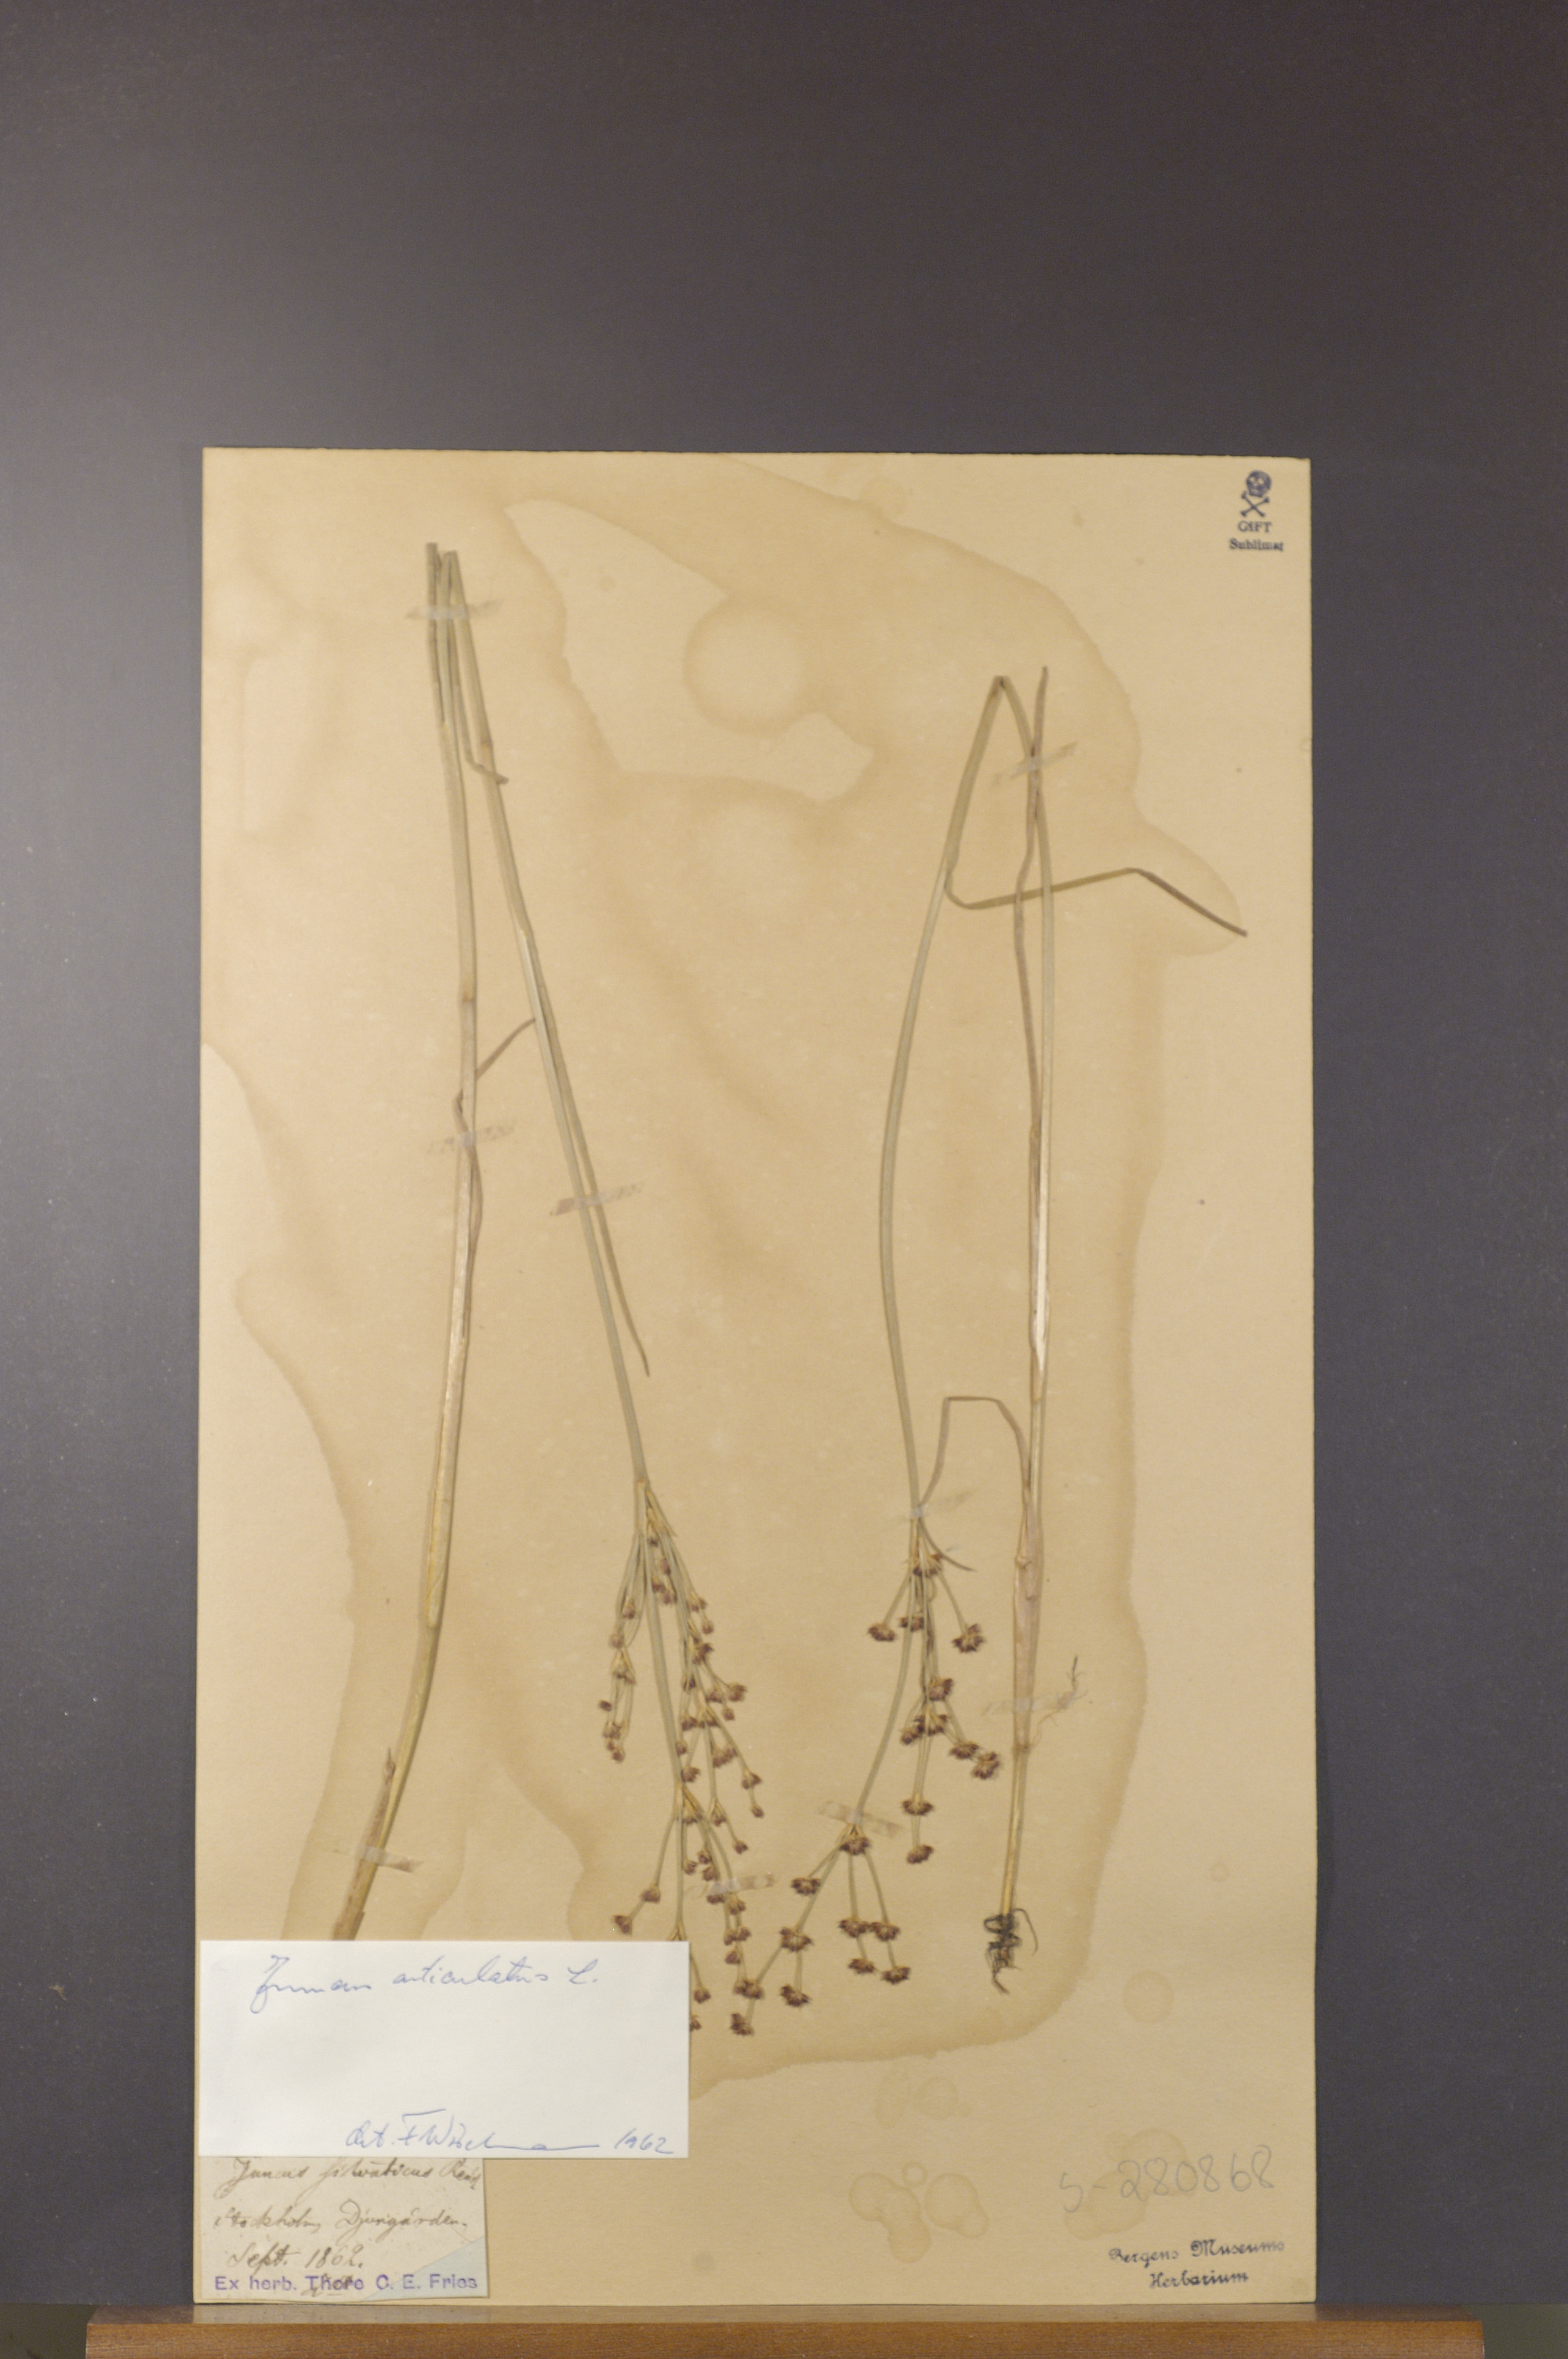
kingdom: Plantae
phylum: Tracheophyta
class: Liliopsida
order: Poales
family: Juncaceae
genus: Juncus
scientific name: Juncus articulatus
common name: Jointed rush
